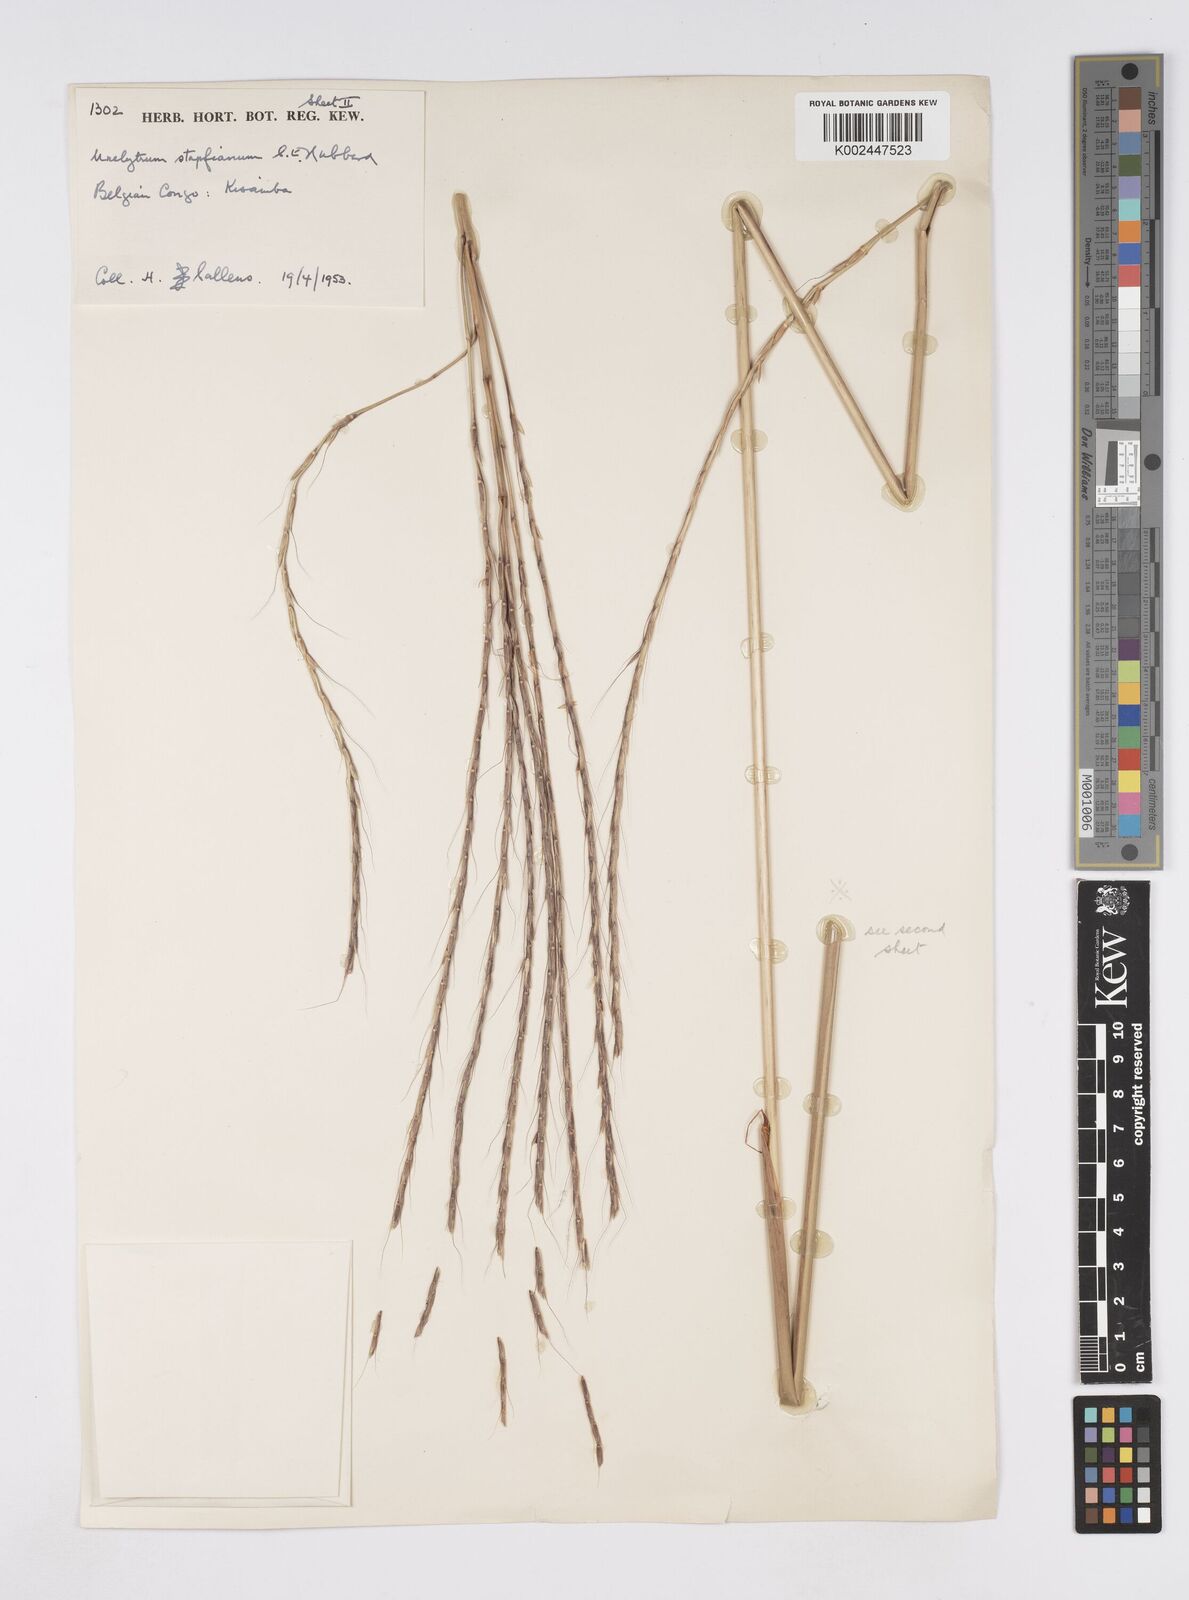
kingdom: Plantae
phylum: Tracheophyta
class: Liliopsida
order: Poales
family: Poaceae
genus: Urelytrum
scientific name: Urelytrum digitatum
